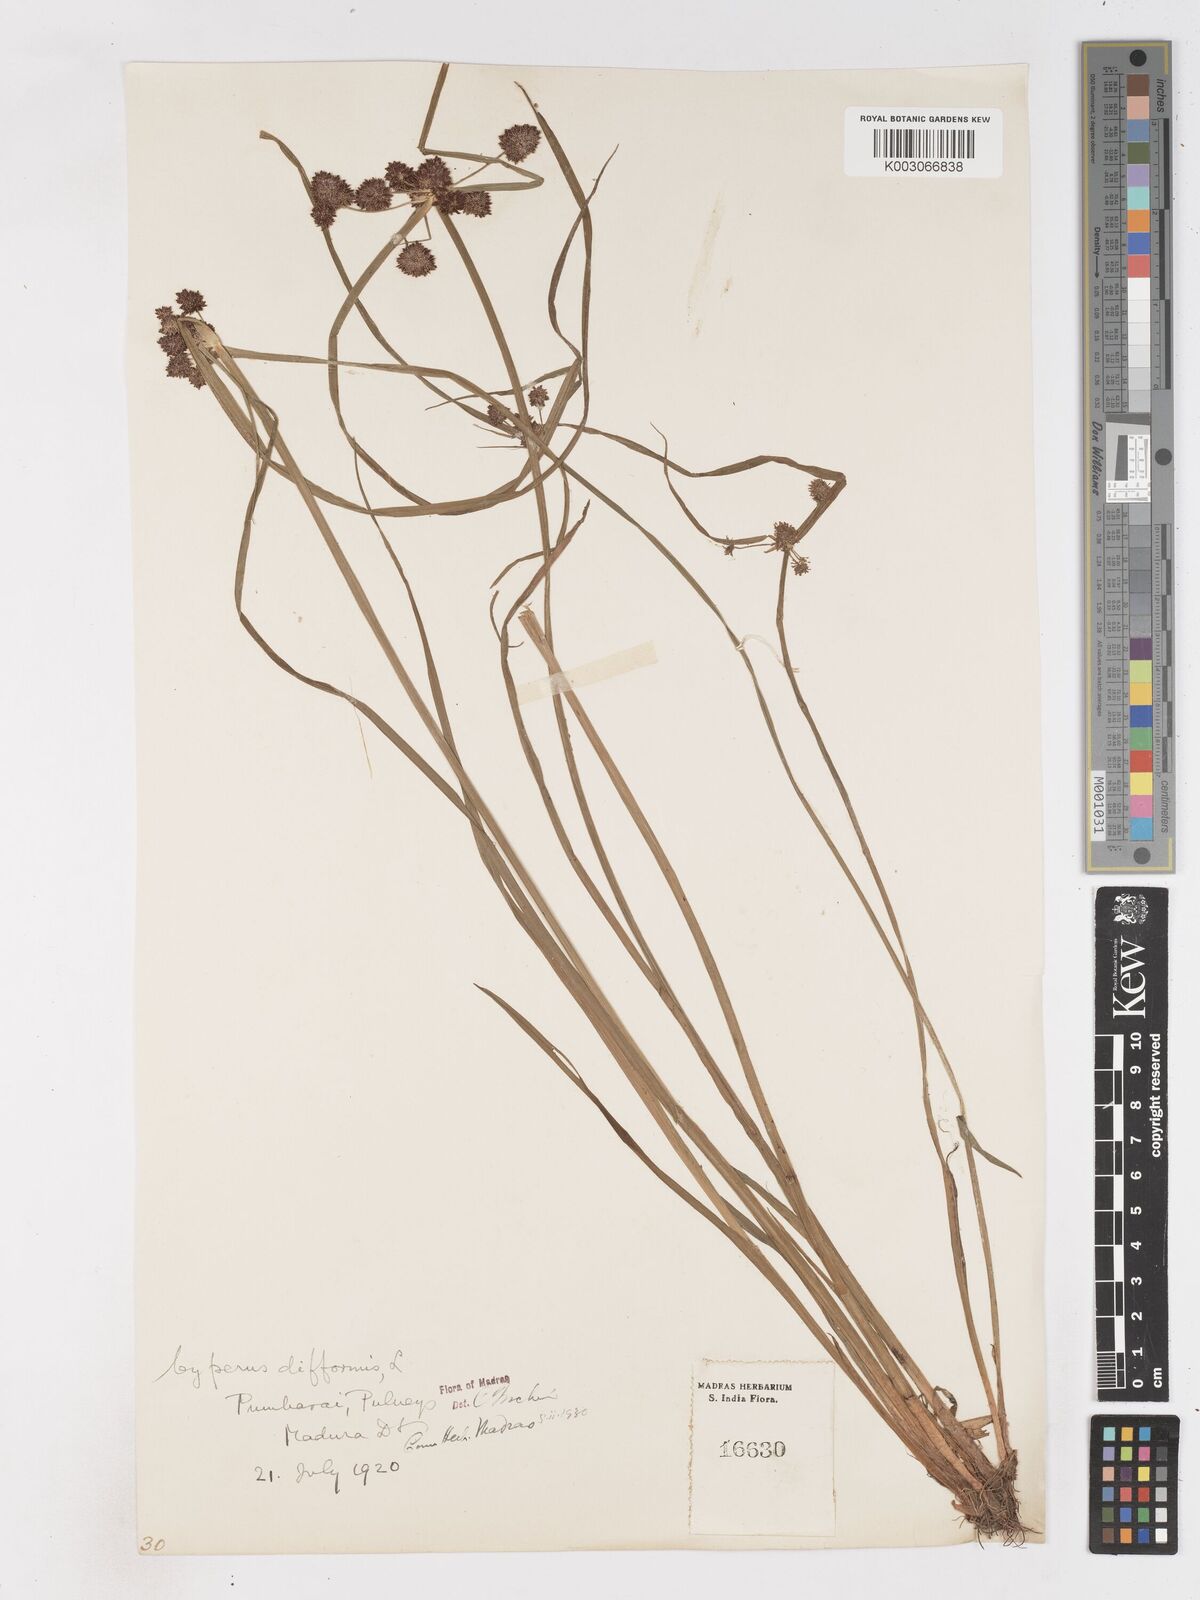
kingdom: Plantae
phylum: Tracheophyta
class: Liliopsida
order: Poales
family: Cyperaceae
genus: Cyperus
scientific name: Cyperus difformis
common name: Variable flatsedge
